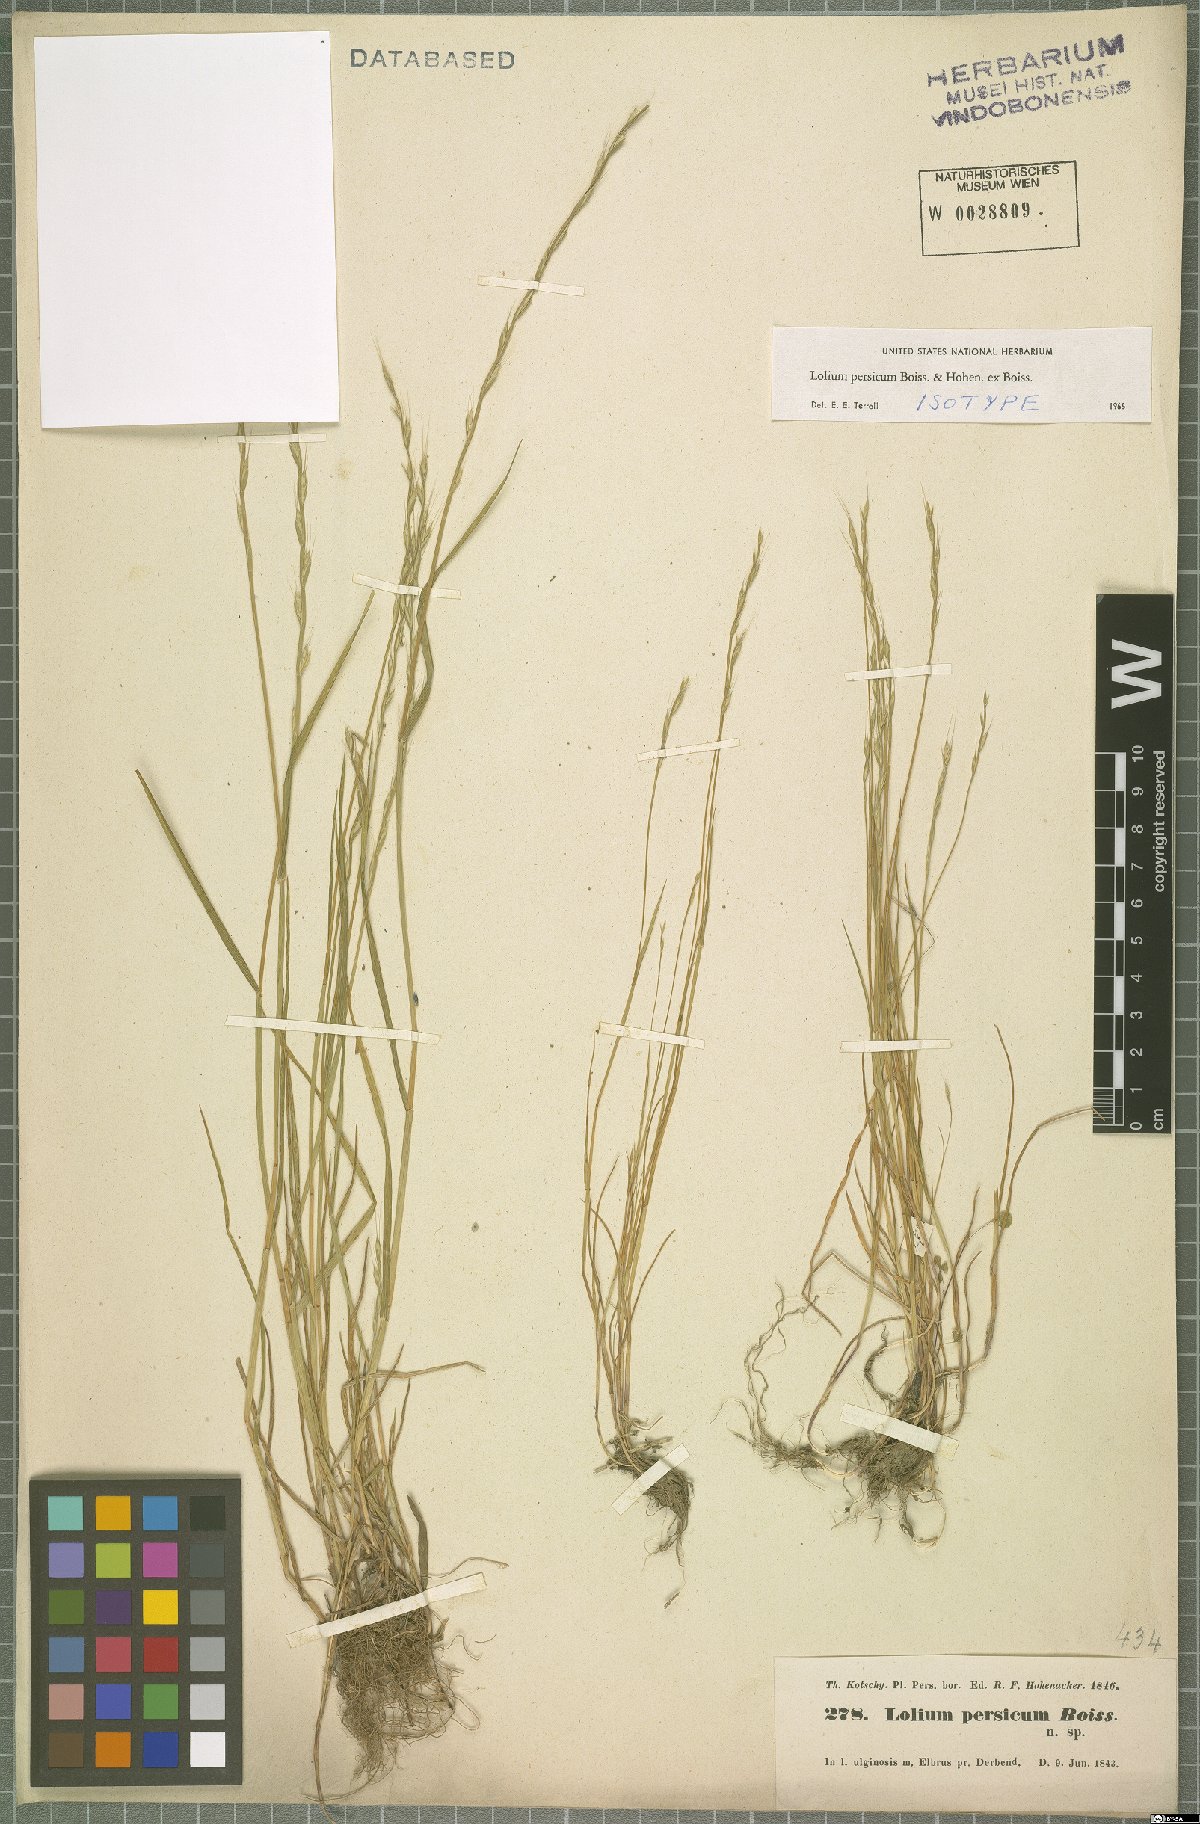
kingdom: Plantae
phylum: Tracheophyta
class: Liliopsida
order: Poales
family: Poaceae
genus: Lolium
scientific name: Lolium persicum
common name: Persian ryegrass
